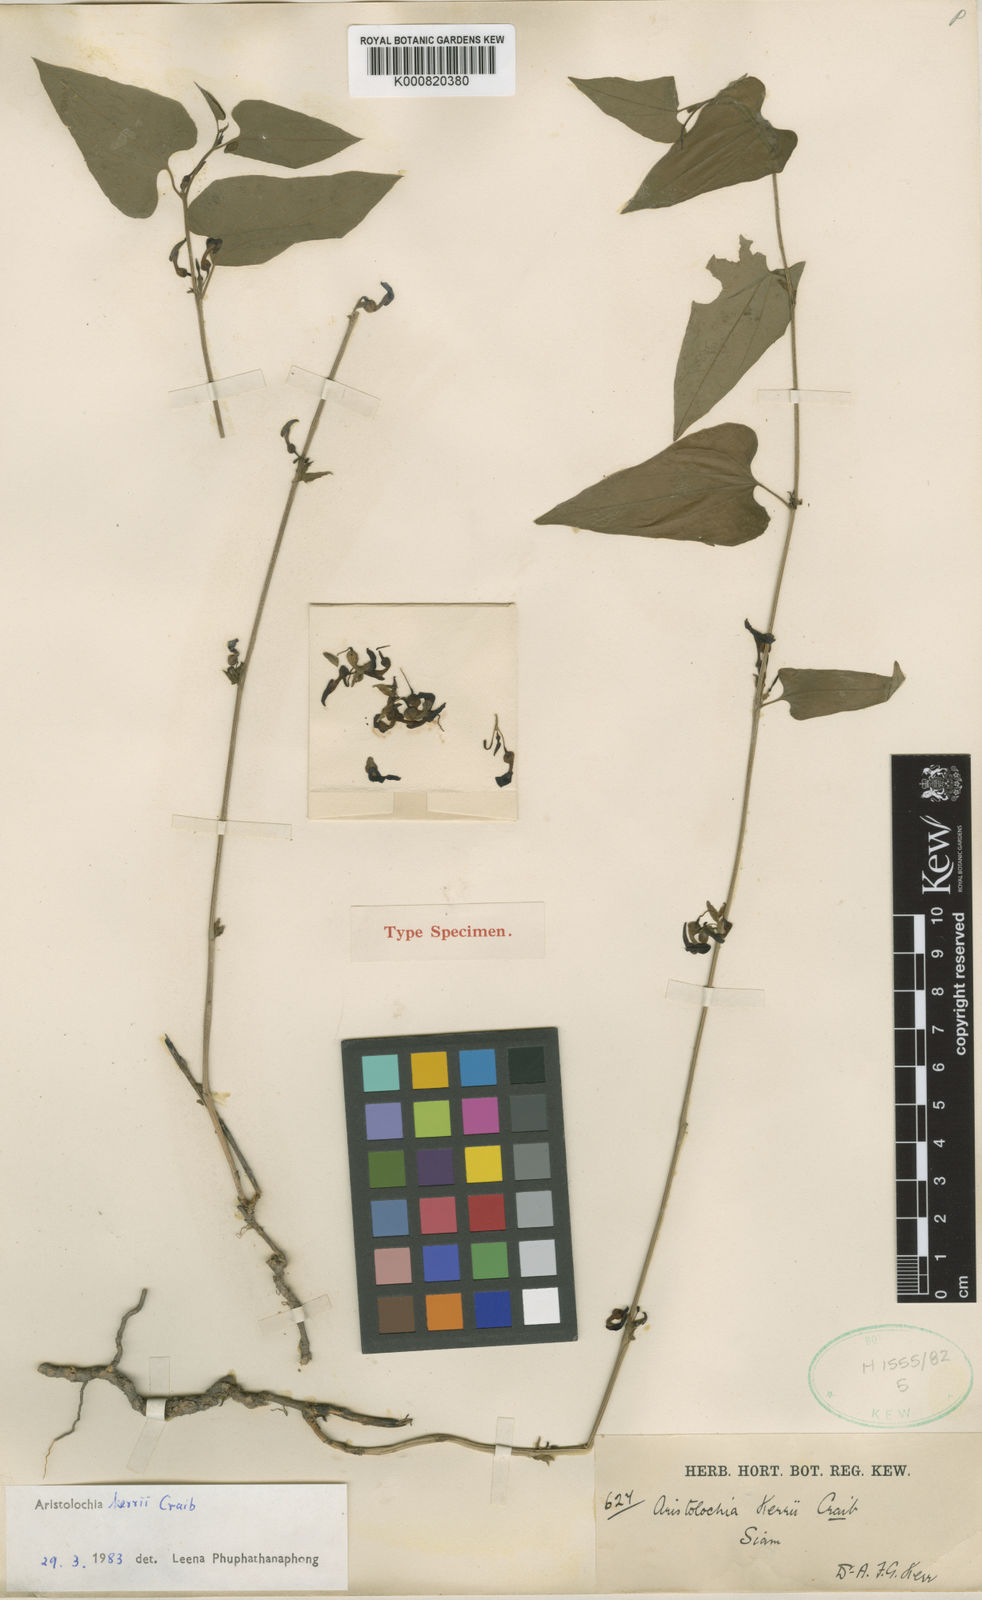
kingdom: Plantae
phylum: Tracheophyta
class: Magnoliopsida
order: Piperales
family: Aristolochiaceae
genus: Aristolochia
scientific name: Aristolochia cambodiana
